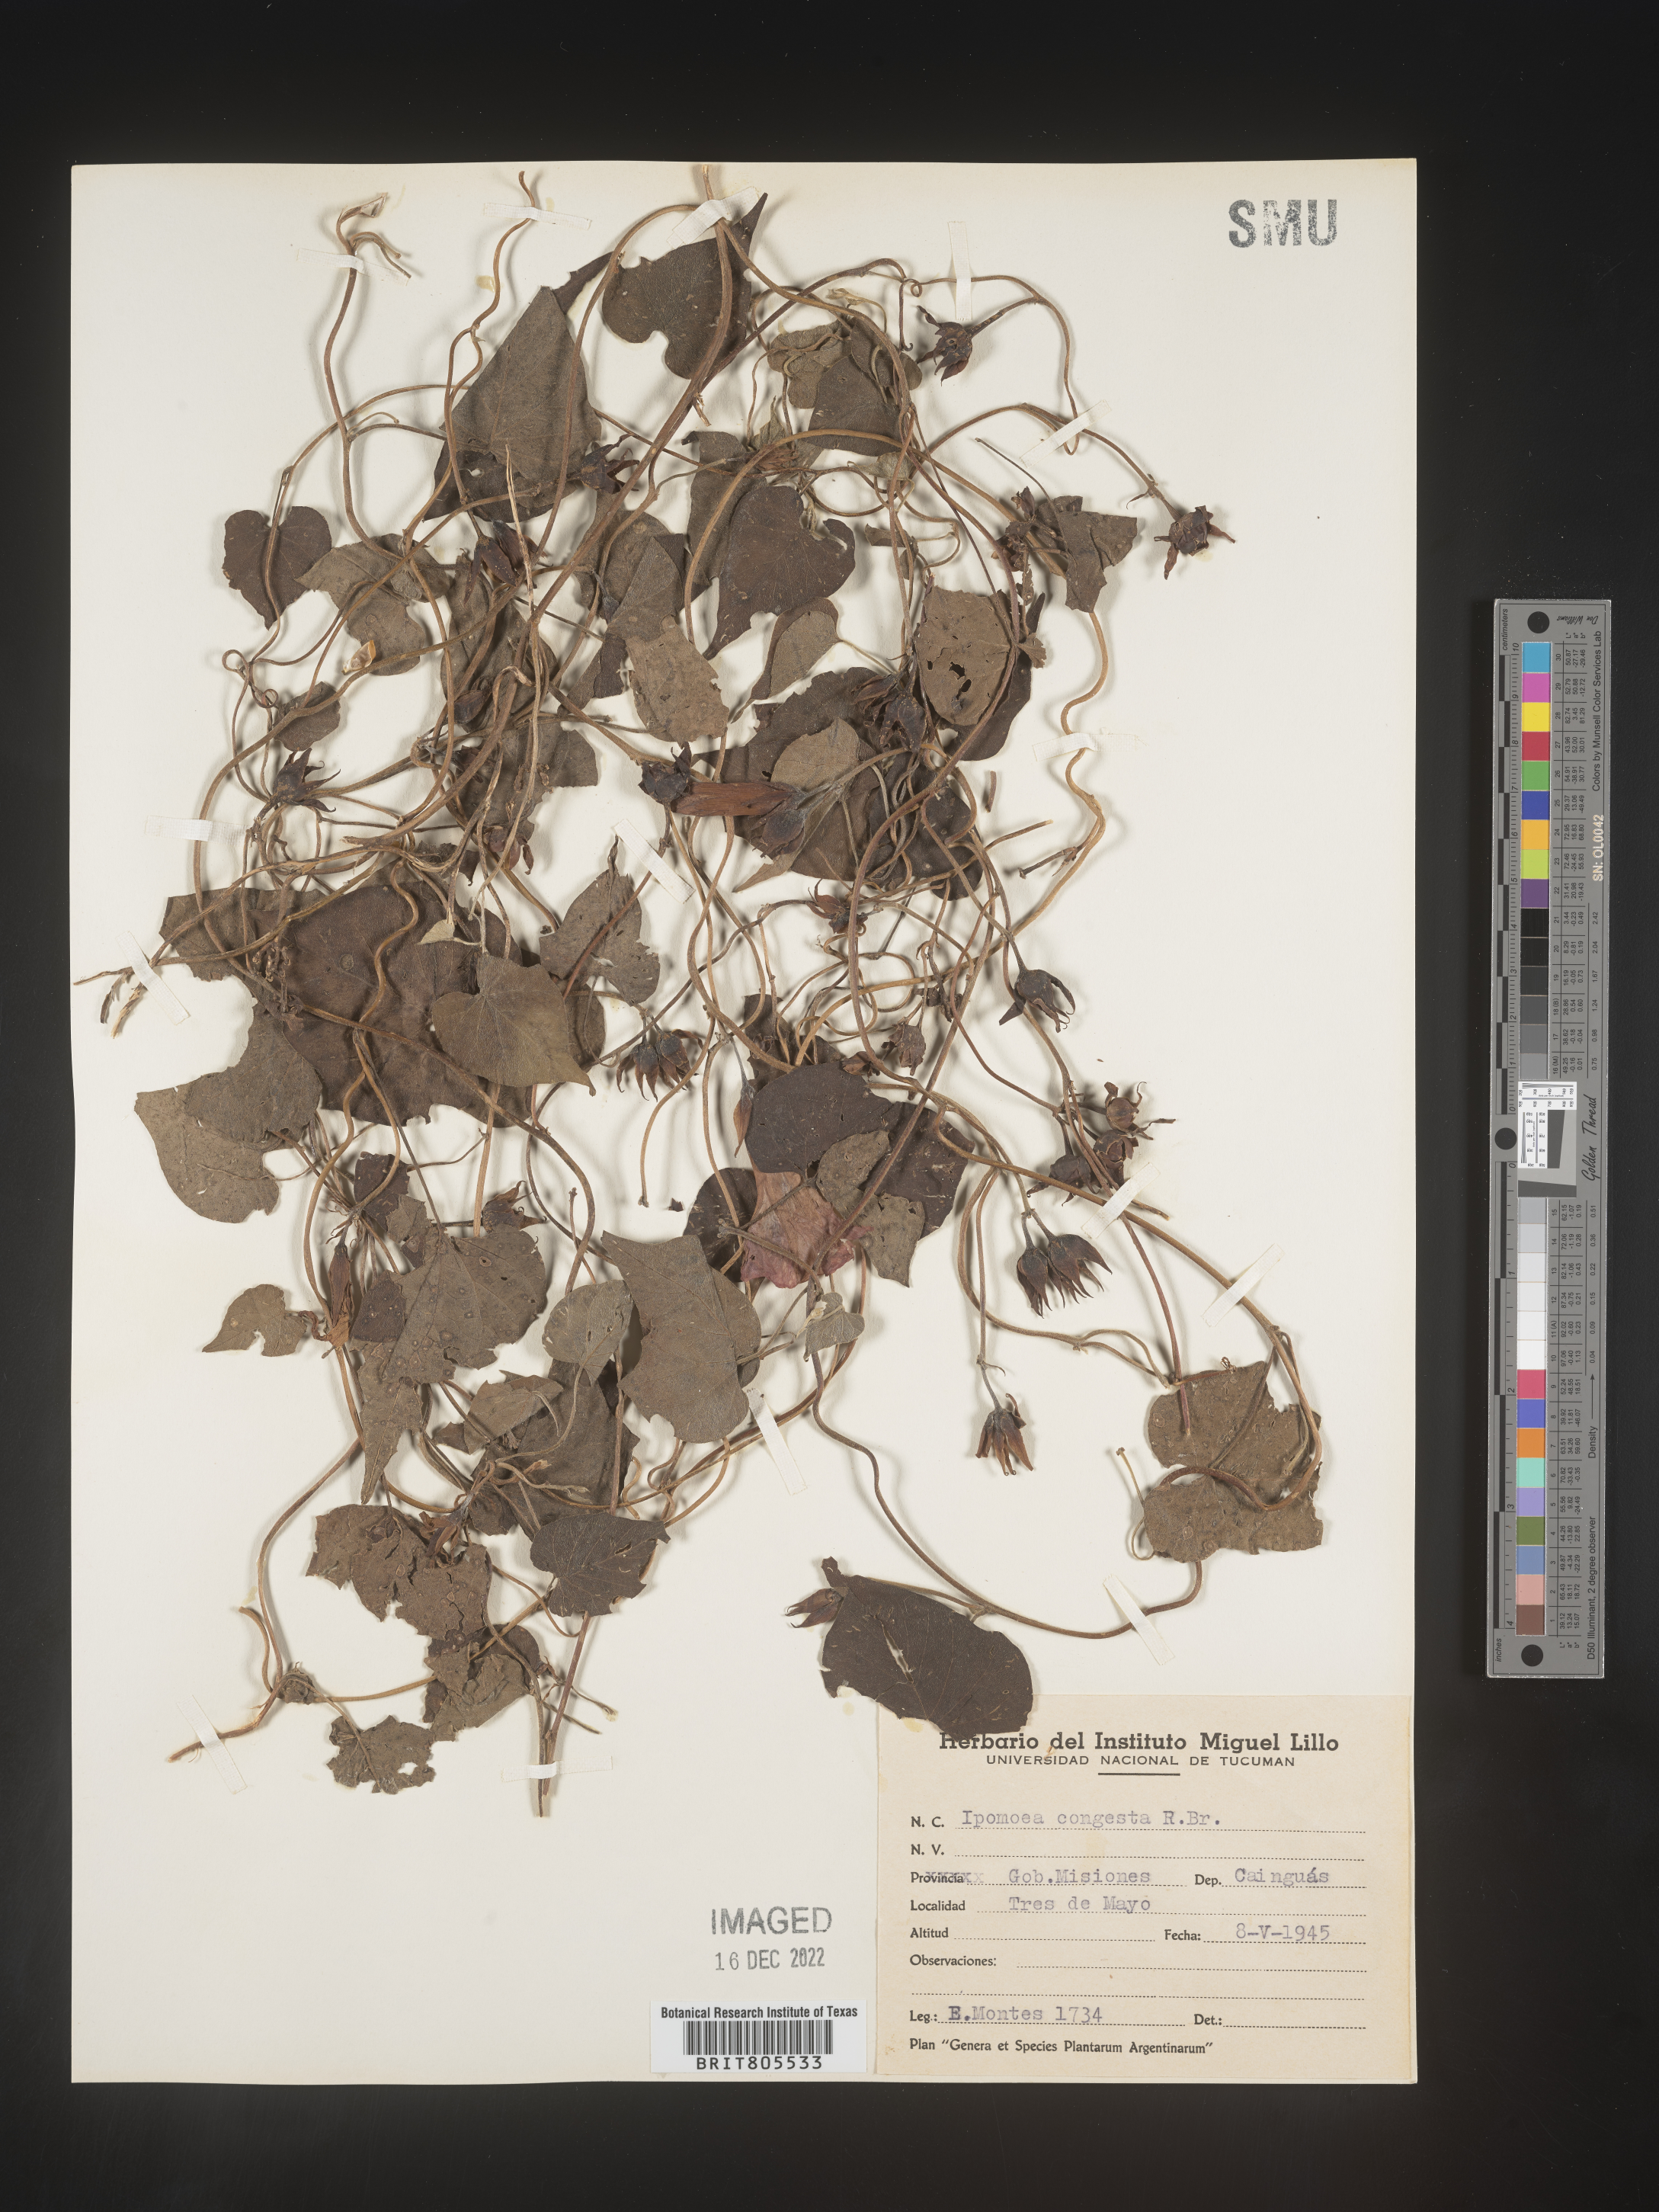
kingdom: Plantae
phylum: Tracheophyta
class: Magnoliopsida
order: Solanales
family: Convolvulaceae
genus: Ipomoea
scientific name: Ipomoea
